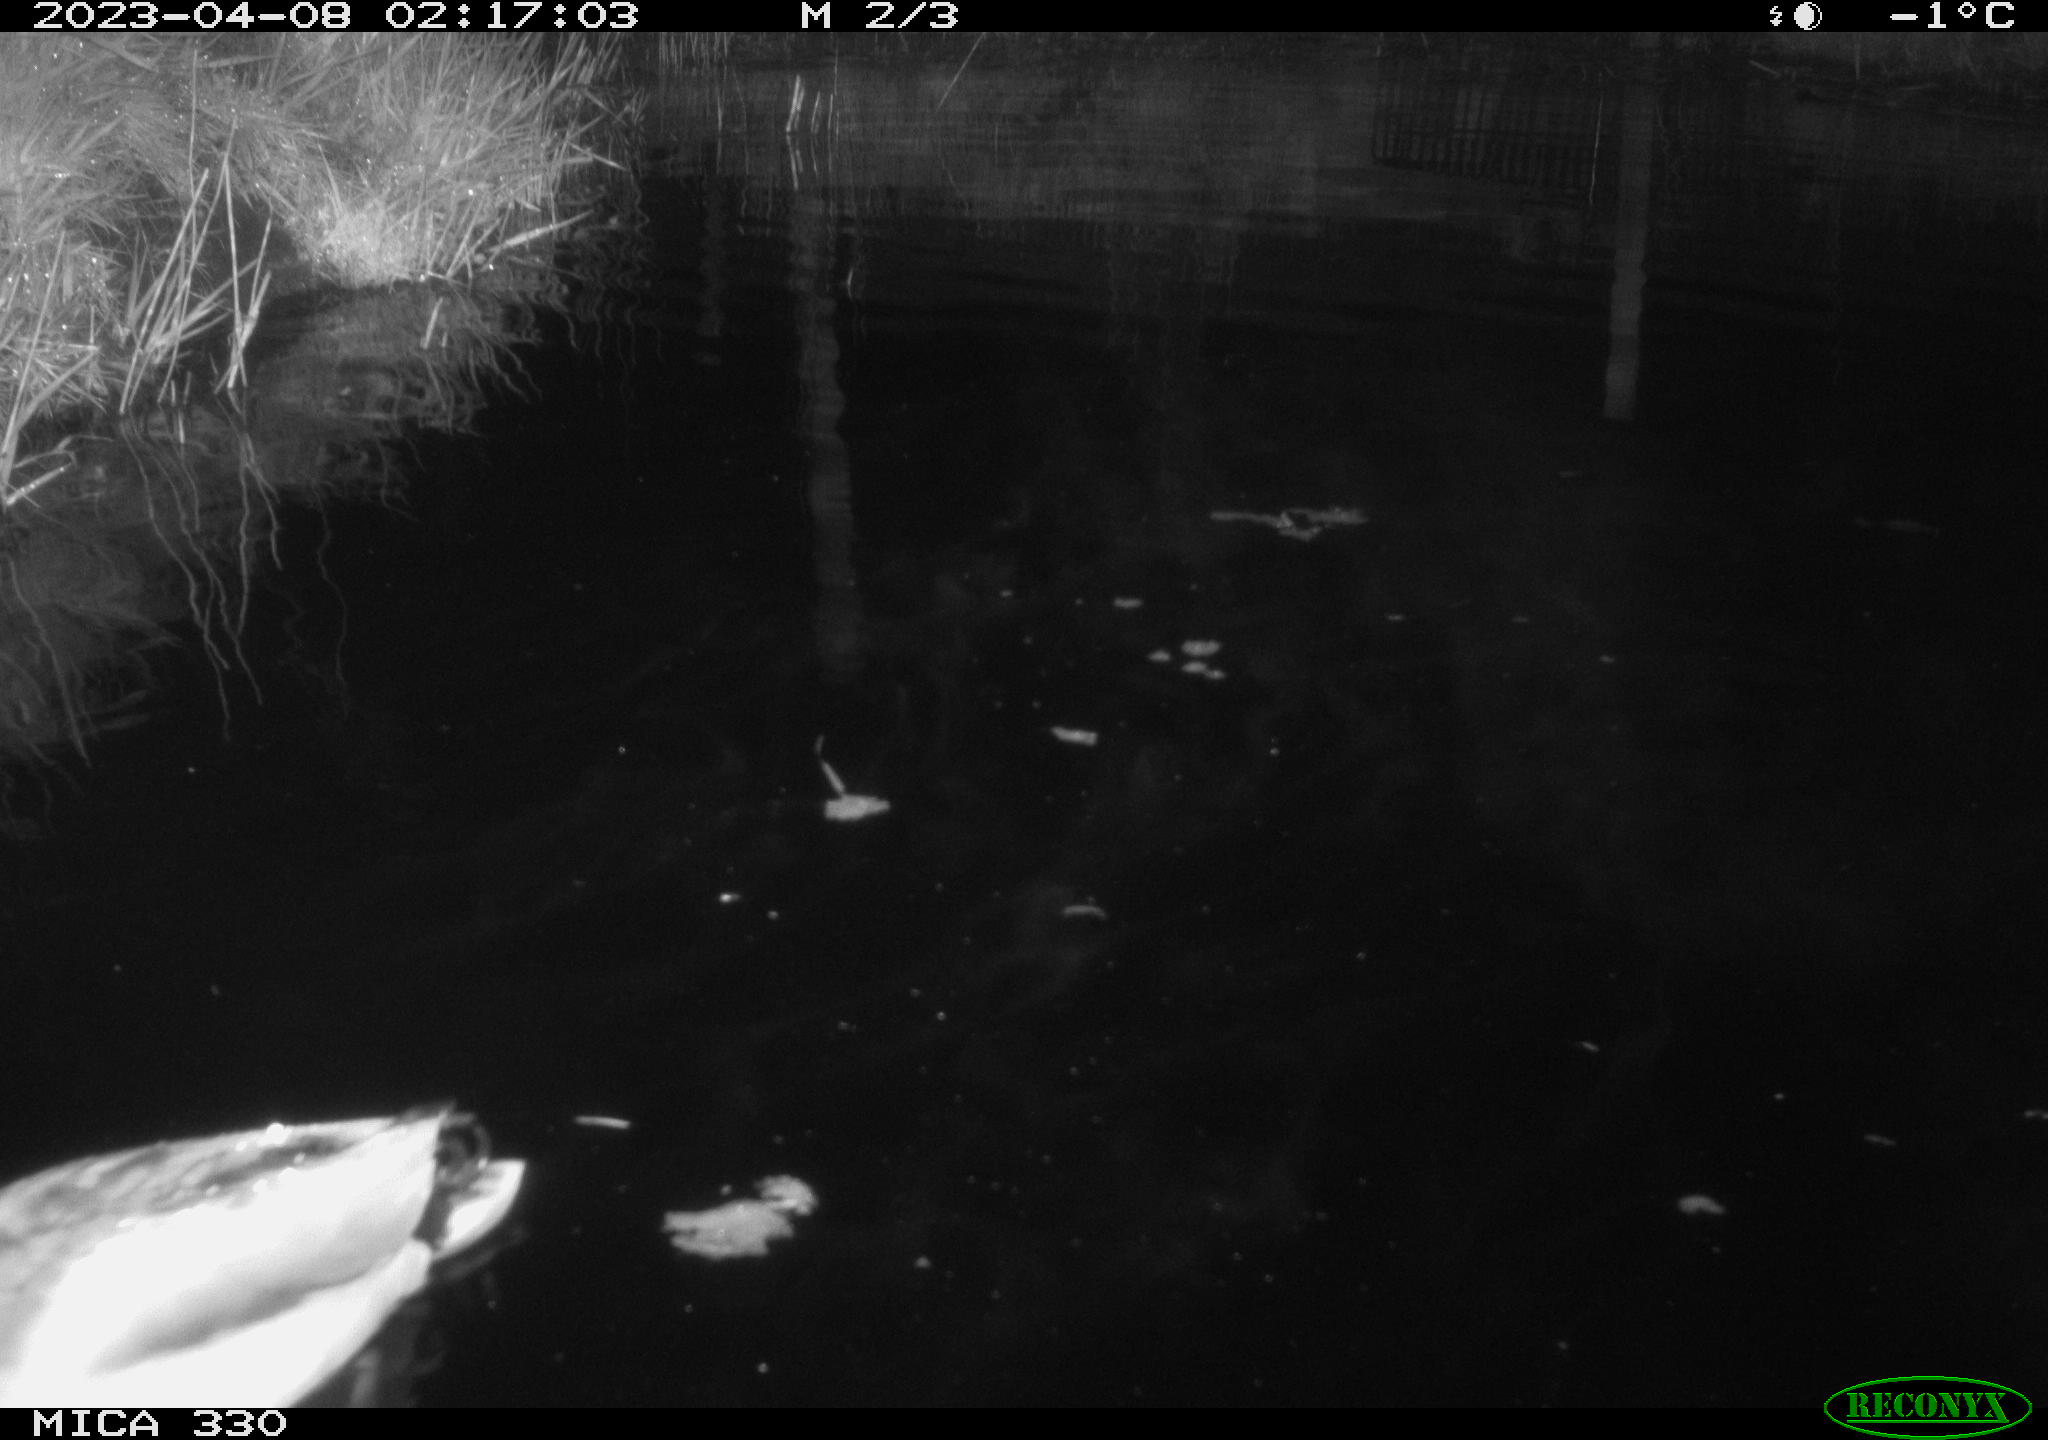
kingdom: Animalia
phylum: Chordata
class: Aves
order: Anseriformes
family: Anatidae
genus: Anas
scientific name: Anas
